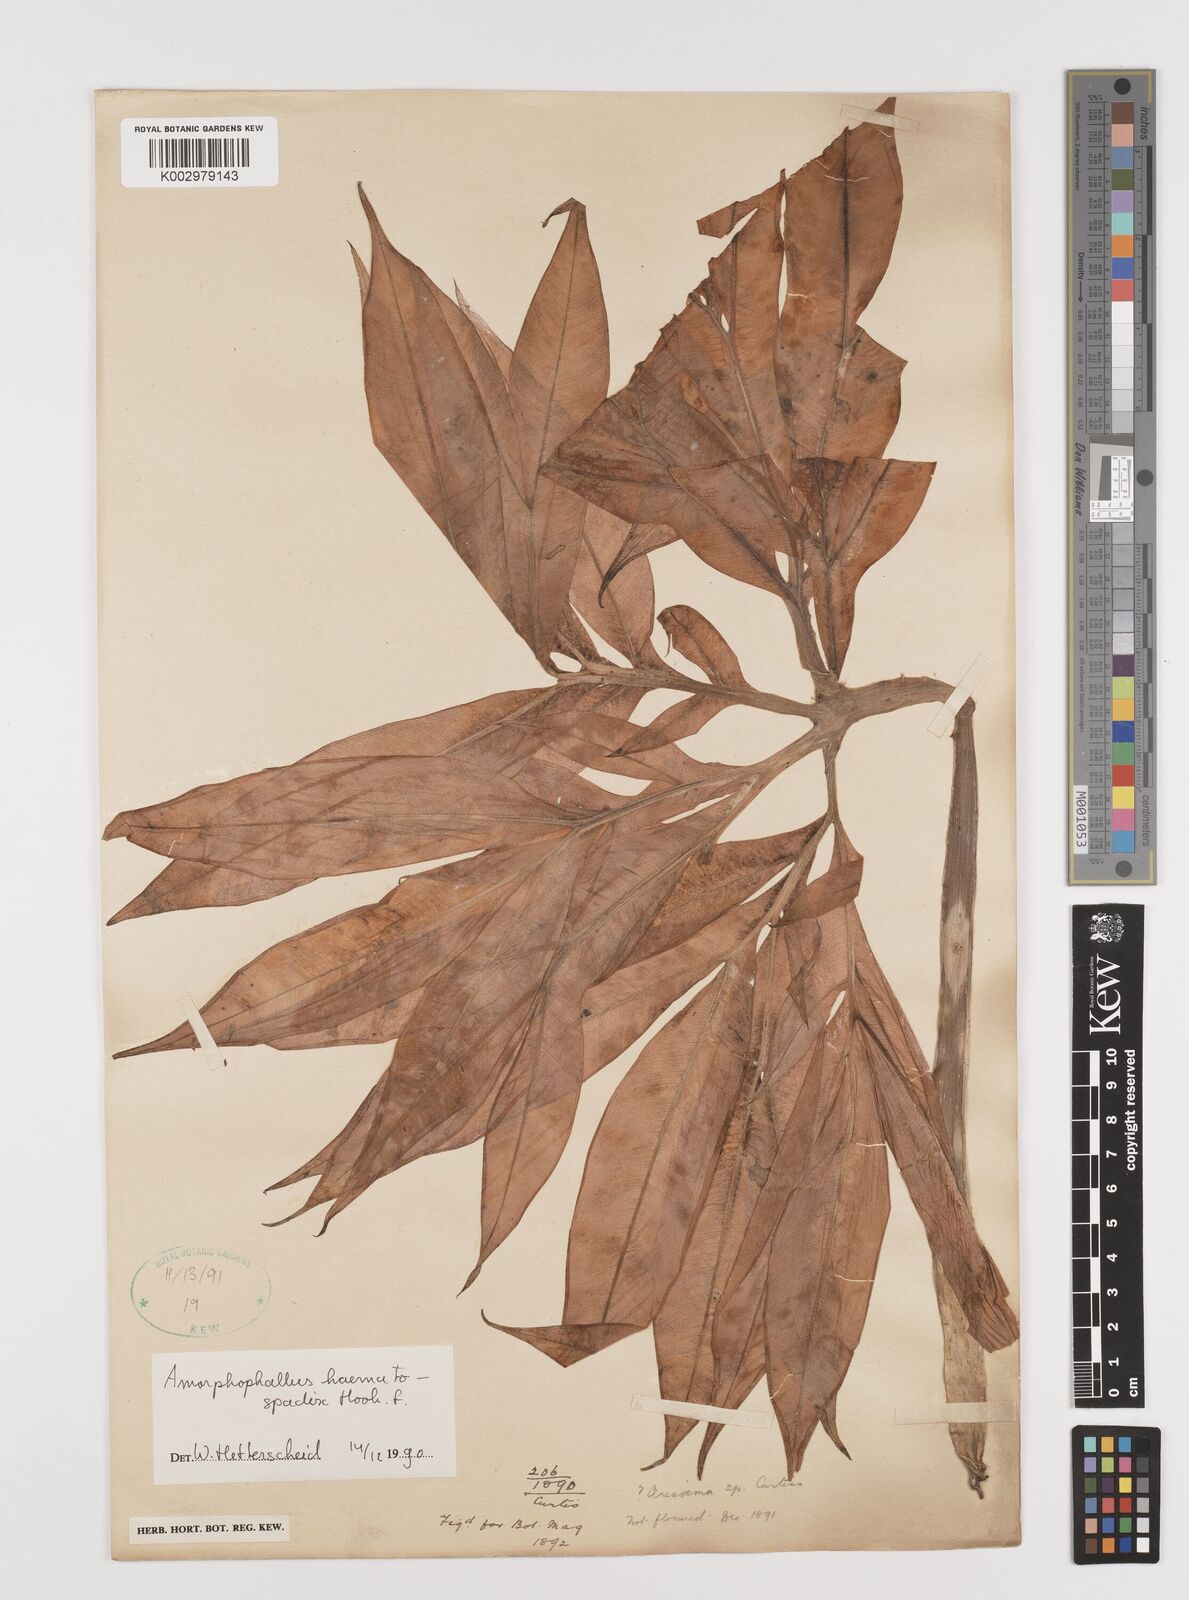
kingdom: Plantae
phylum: Tracheophyta
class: Liliopsida
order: Alismatales
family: Araceae
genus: Amorphophallus
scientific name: Amorphophallus haematospadix
